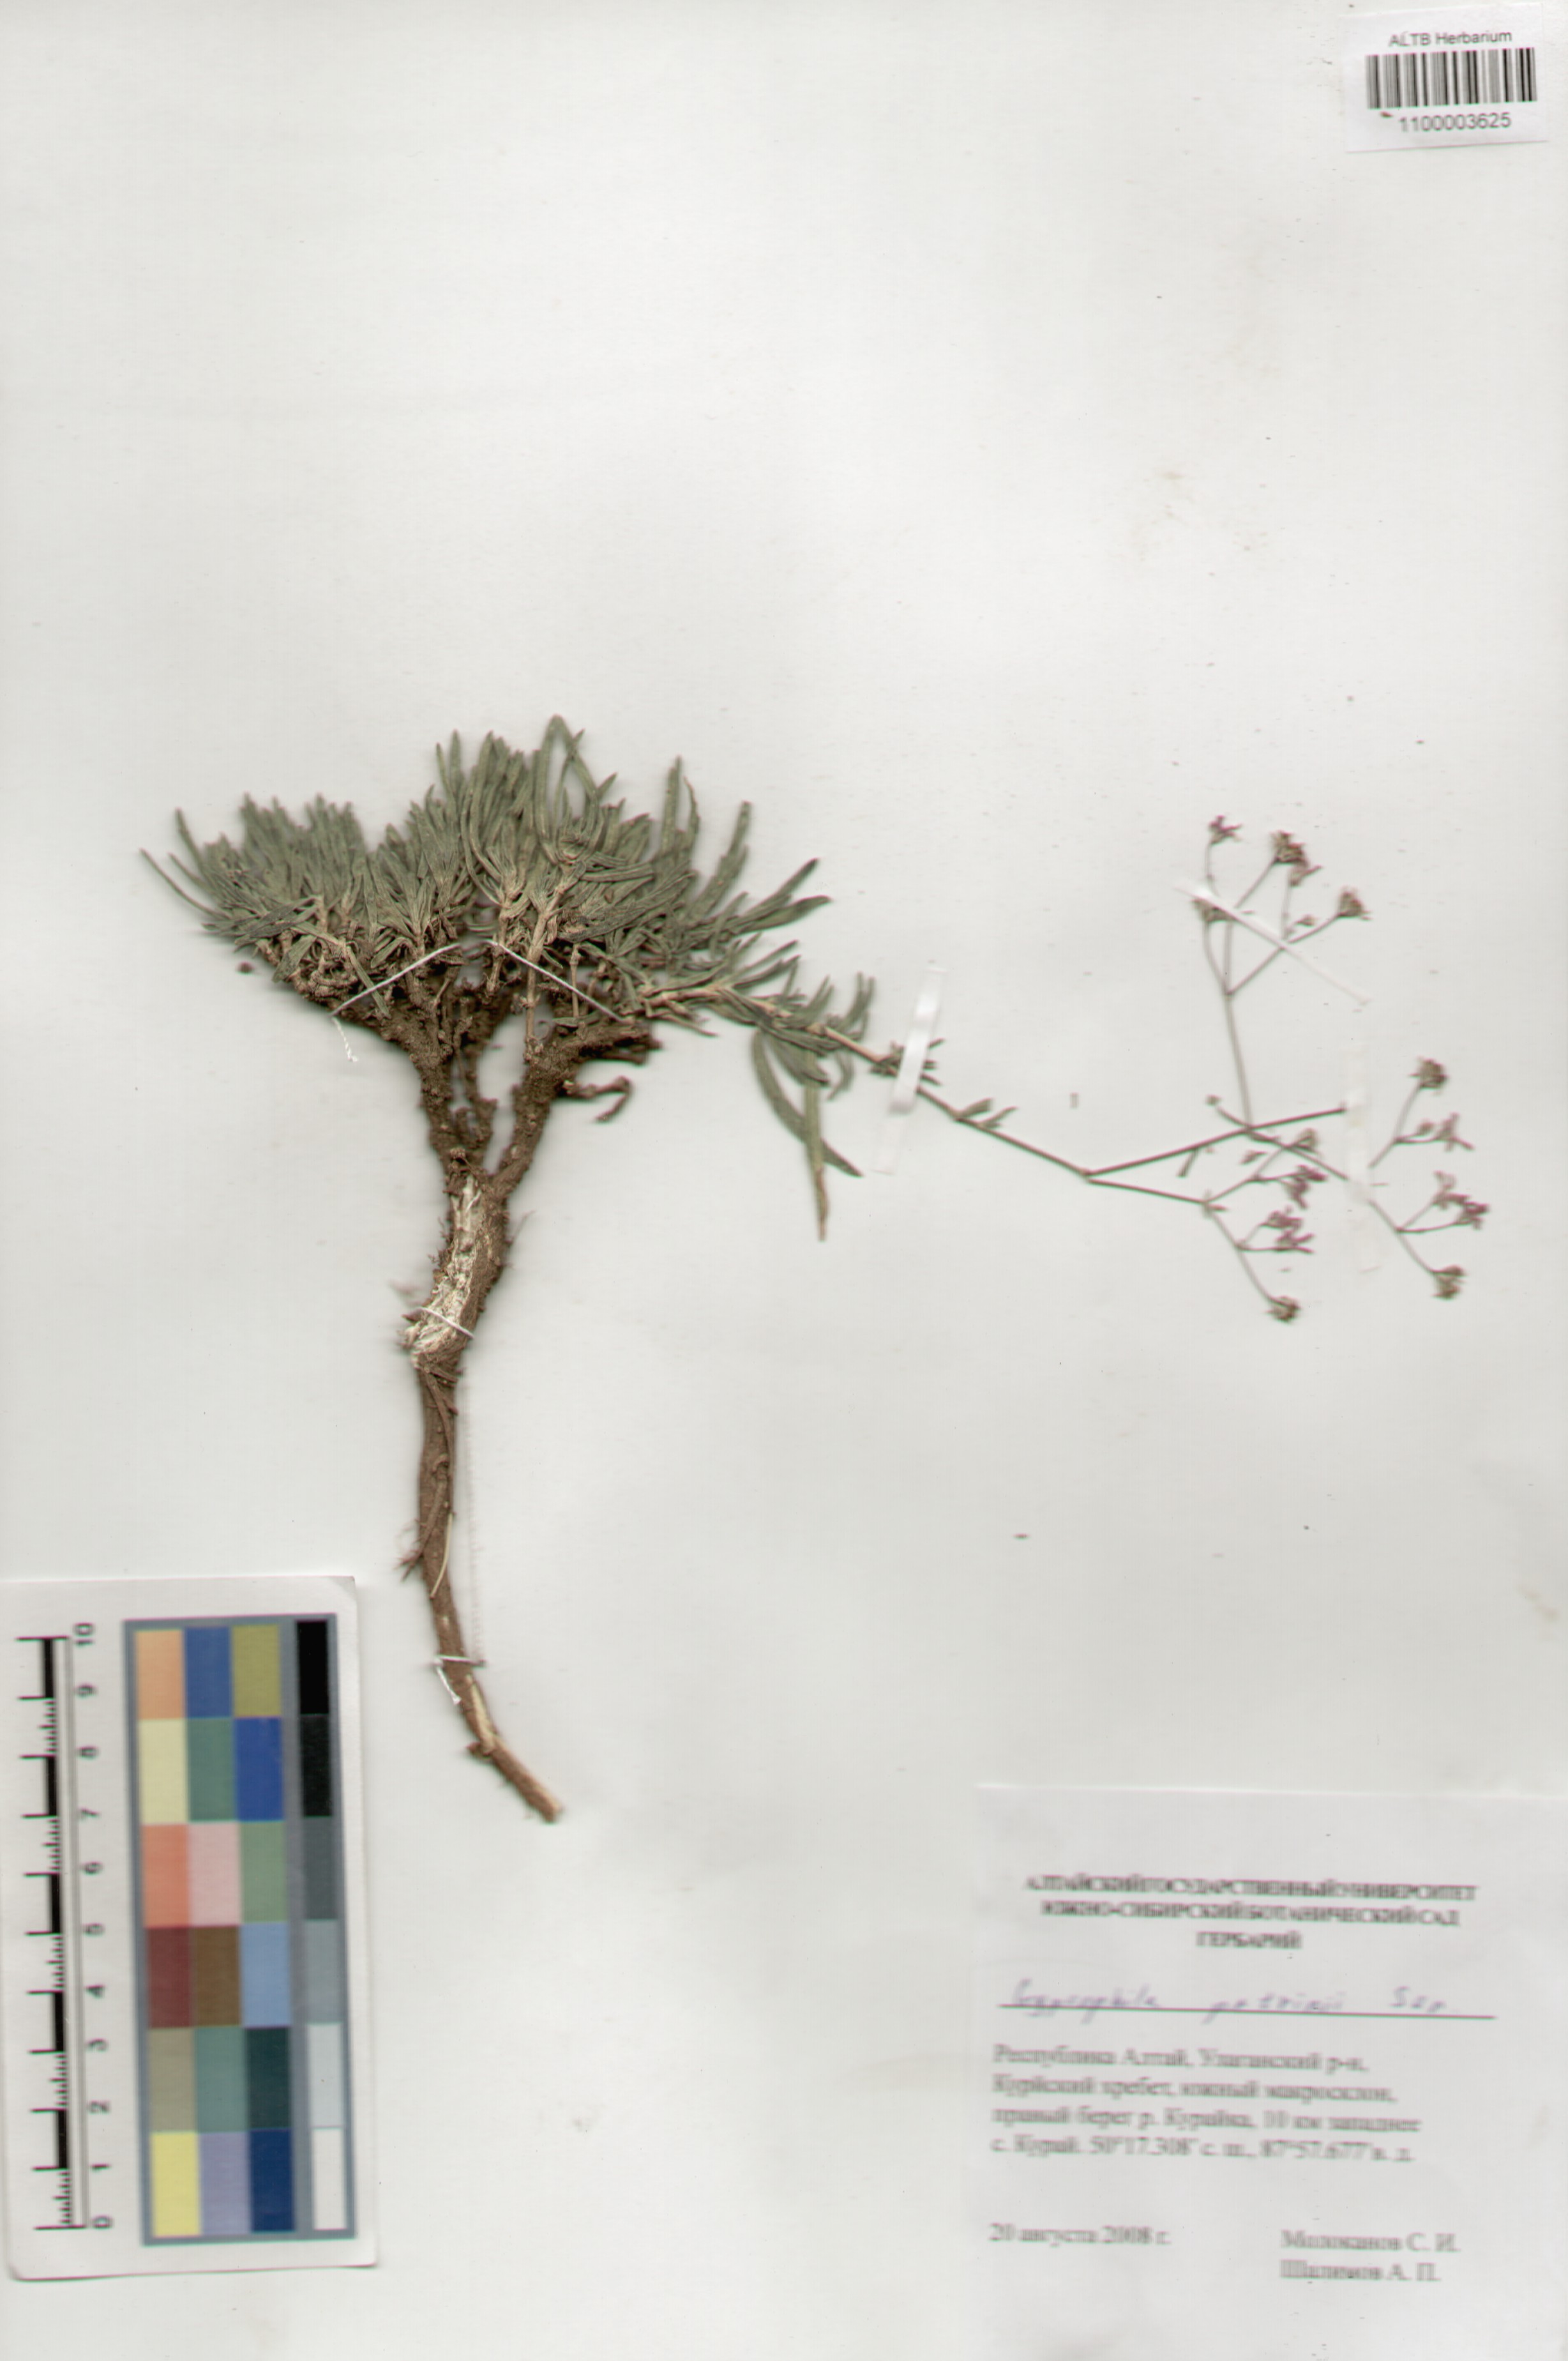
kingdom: Plantae
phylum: Tracheophyta
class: Magnoliopsida
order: Caryophyllales
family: Caryophyllaceae
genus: Gypsophila
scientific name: Gypsophila patrinii
